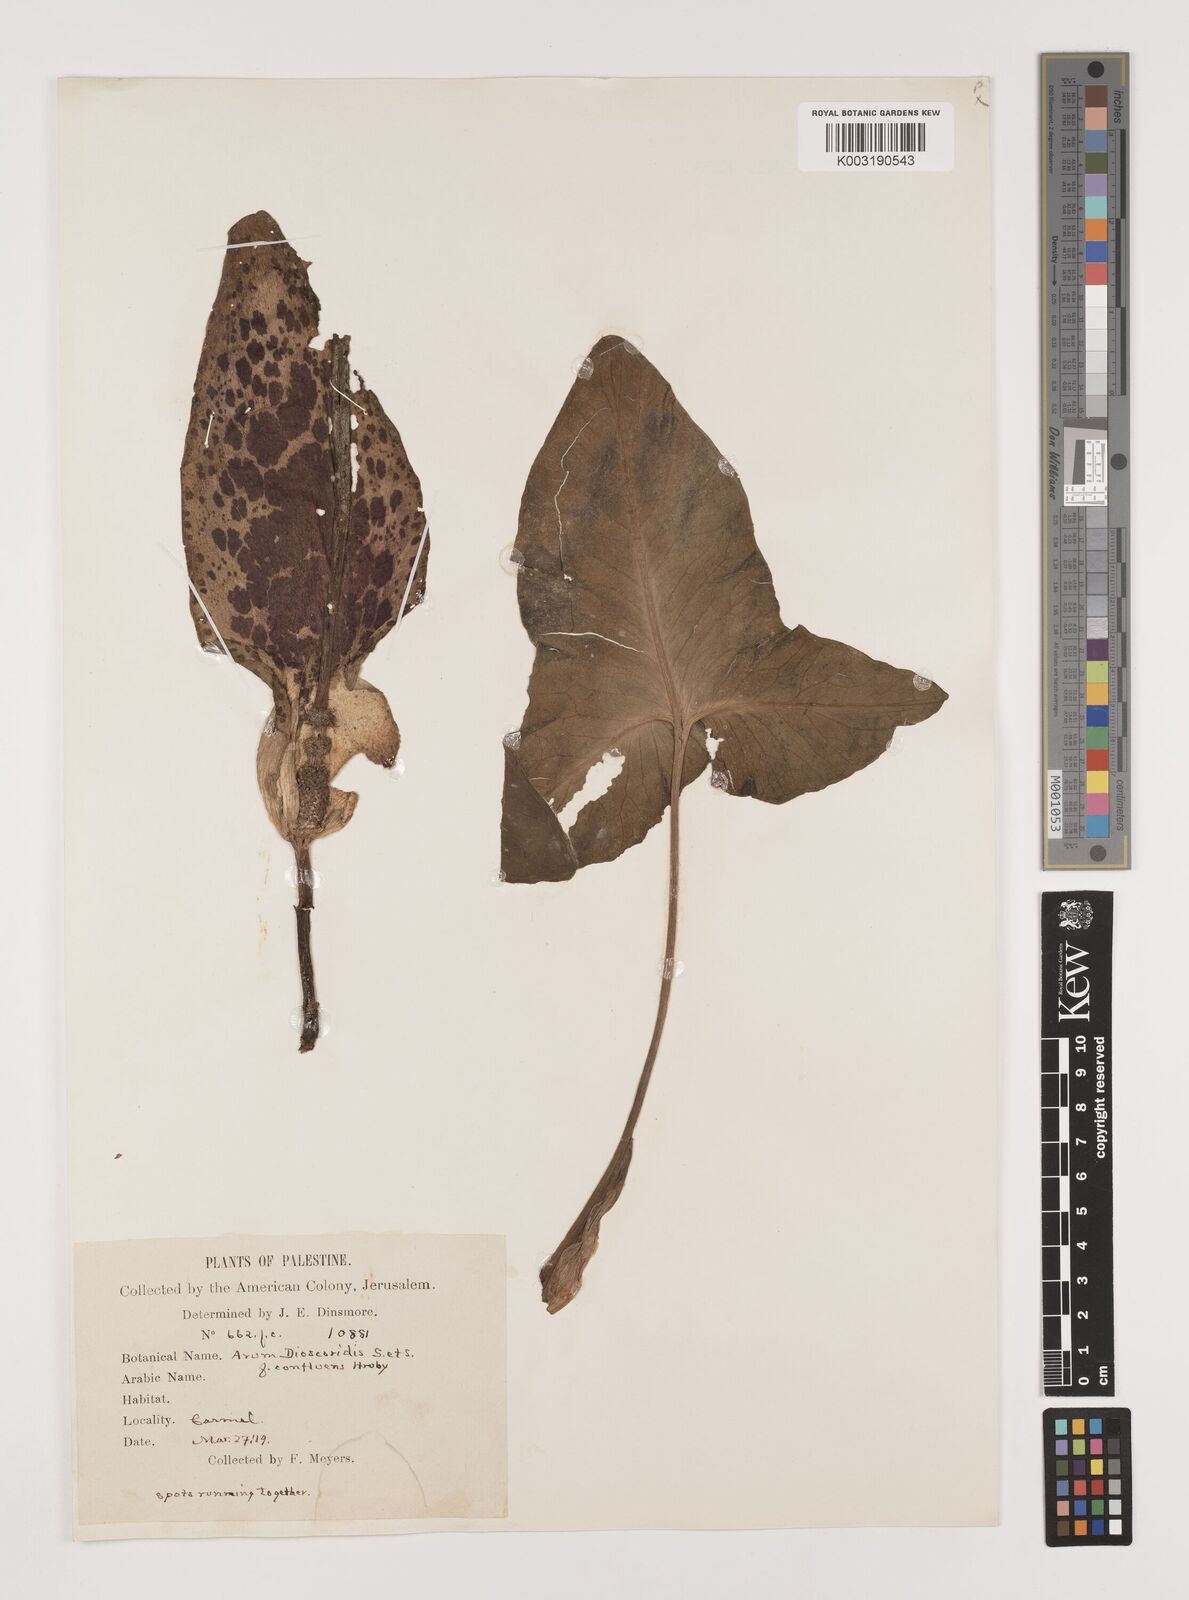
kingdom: Plantae
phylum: Tracheophyta
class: Liliopsida
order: Alismatales
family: Araceae
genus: Arum
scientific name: Arum dioscoridis
